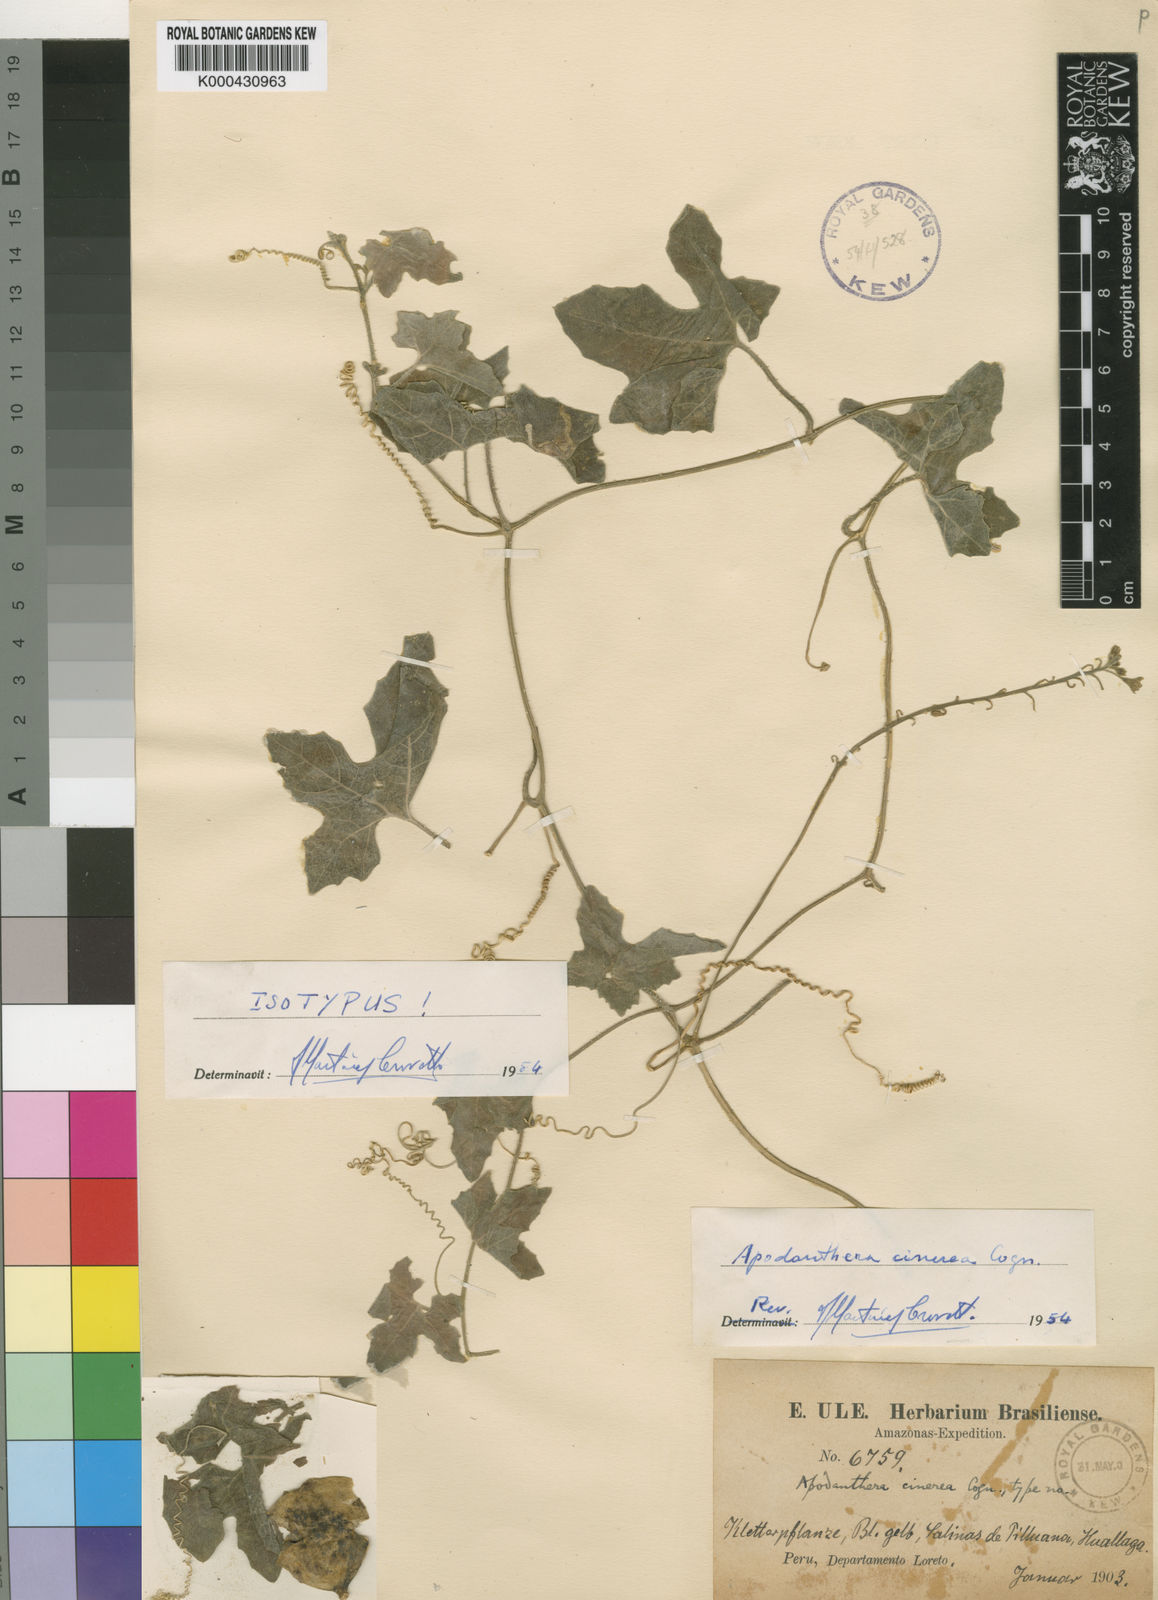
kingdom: Plantae
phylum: Tracheophyta
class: Magnoliopsida
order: Cucurbitales
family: Cucurbitaceae
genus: Apodanthera
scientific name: Apodanthera cinerea
